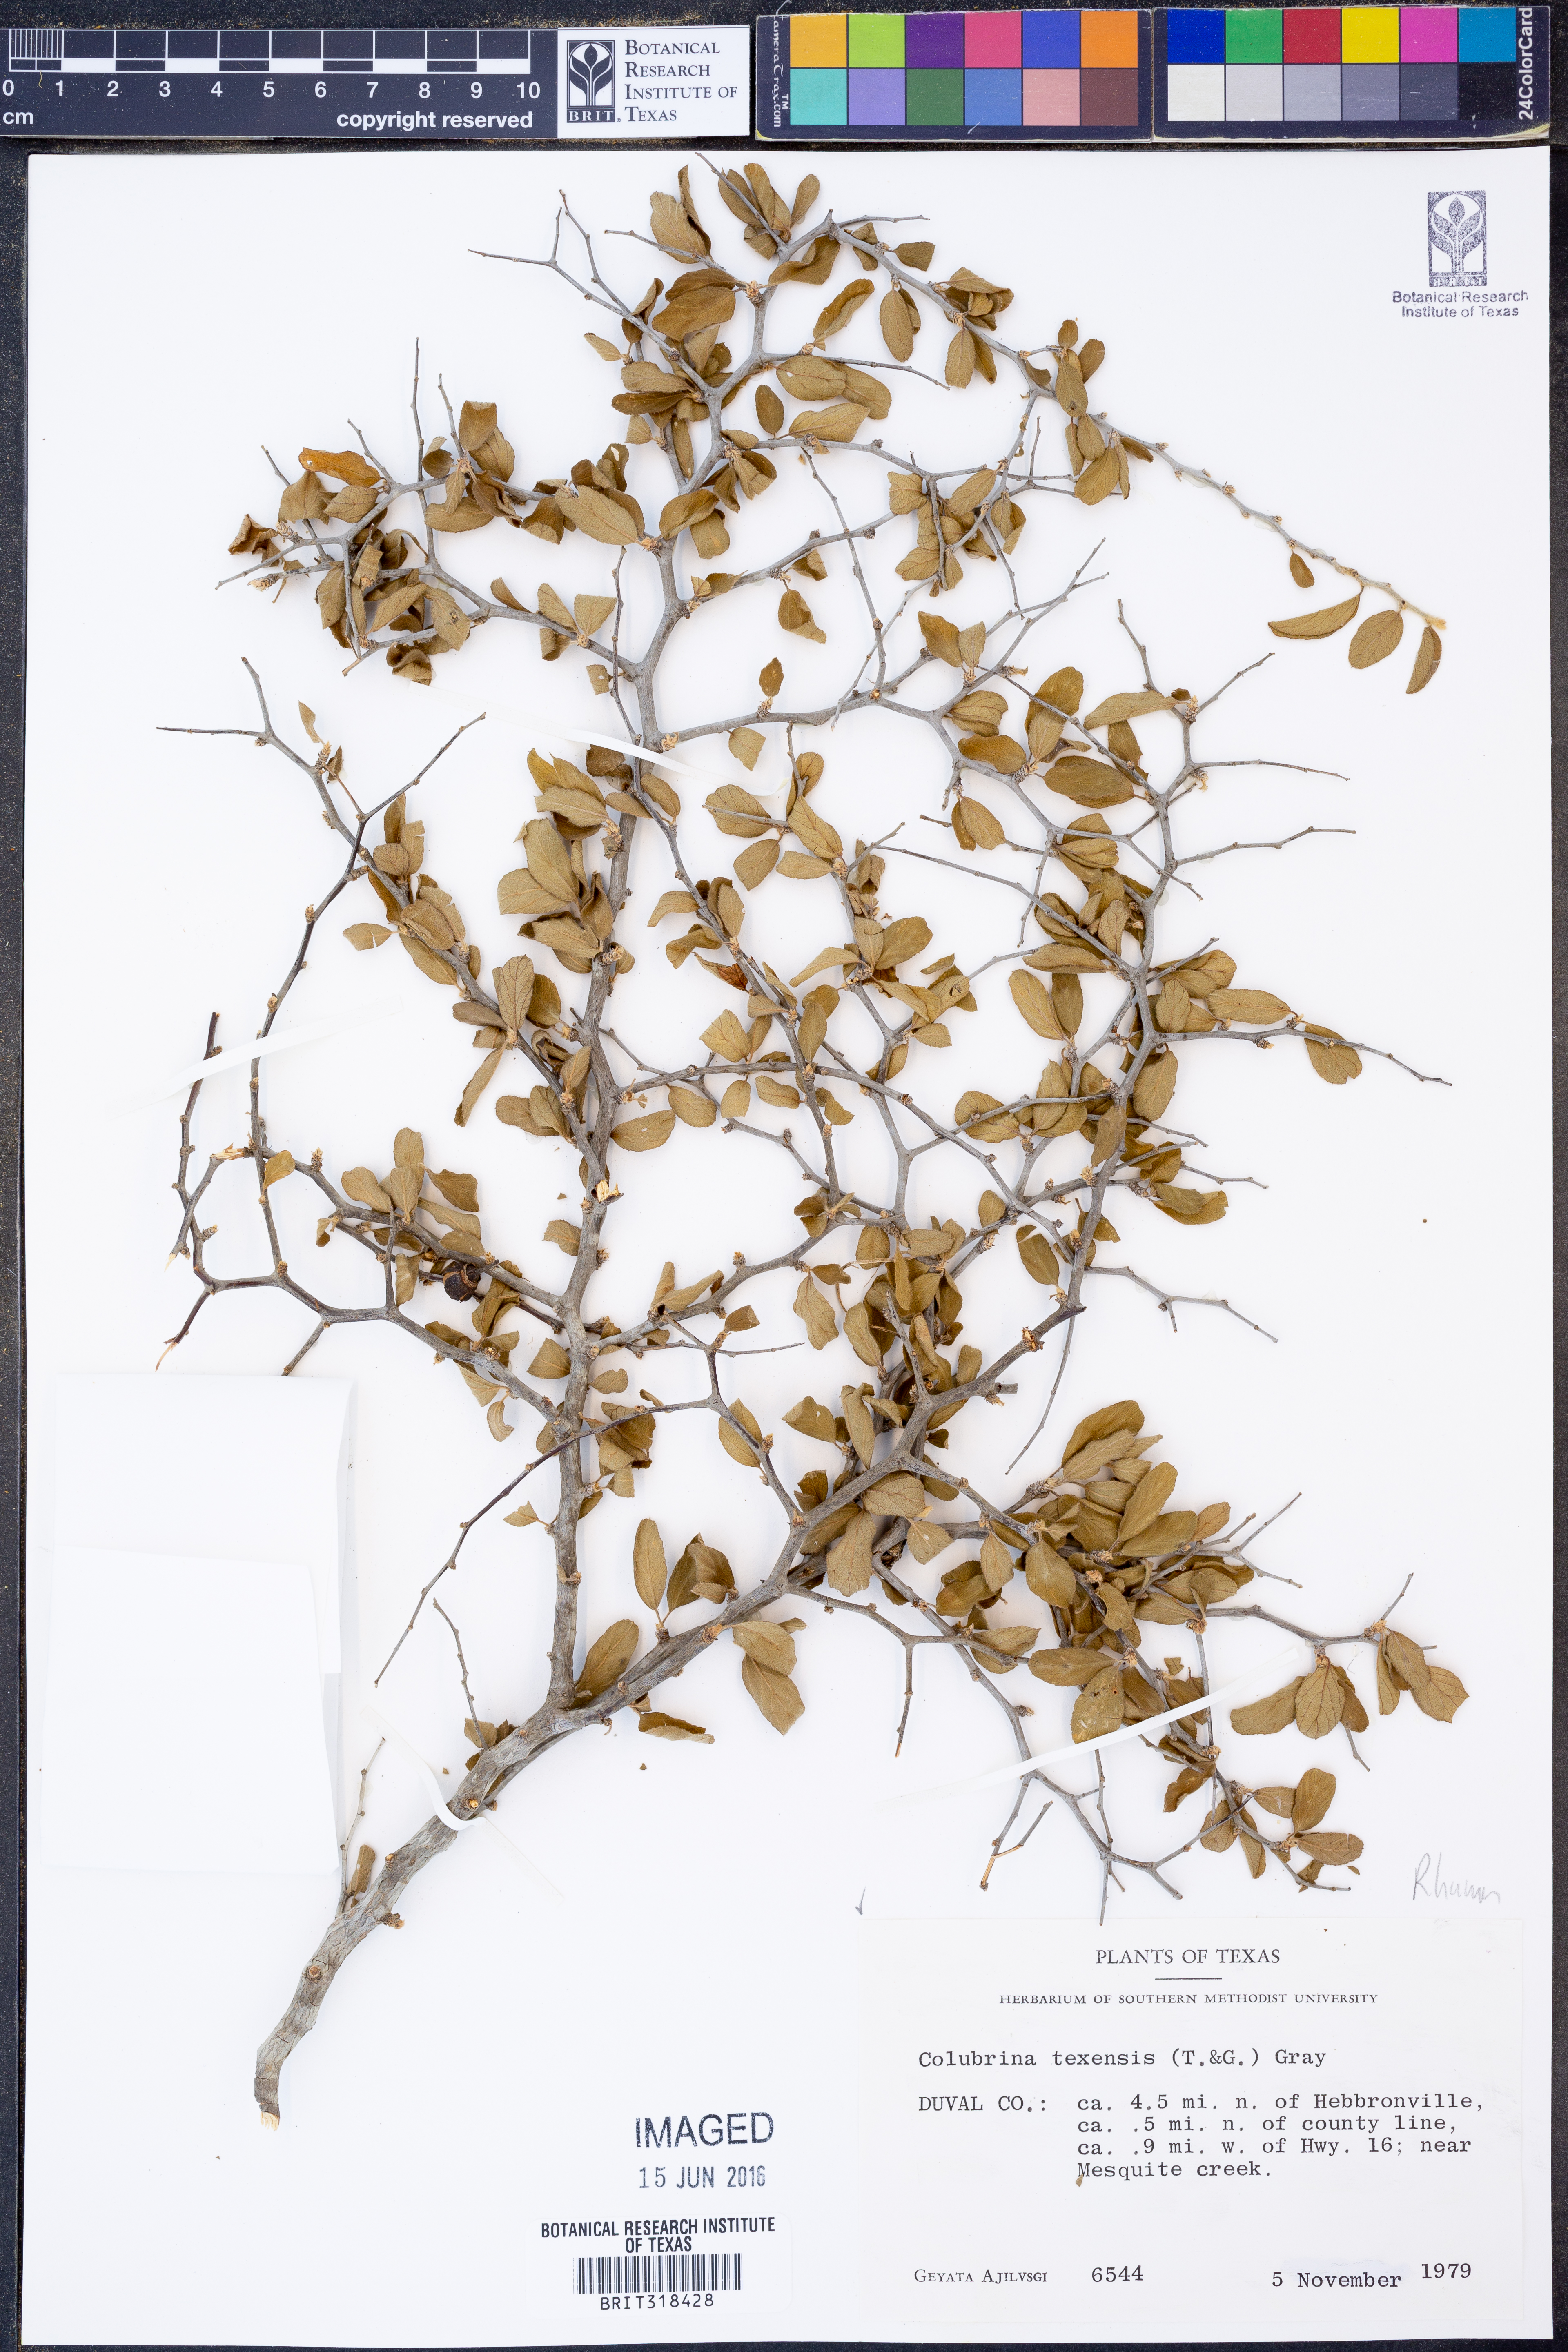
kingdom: Plantae
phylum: Tracheophyta
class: Magnoliopsida
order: Rosales
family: Rhamnaceae
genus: Colubrina
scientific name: Colubrina texensis
